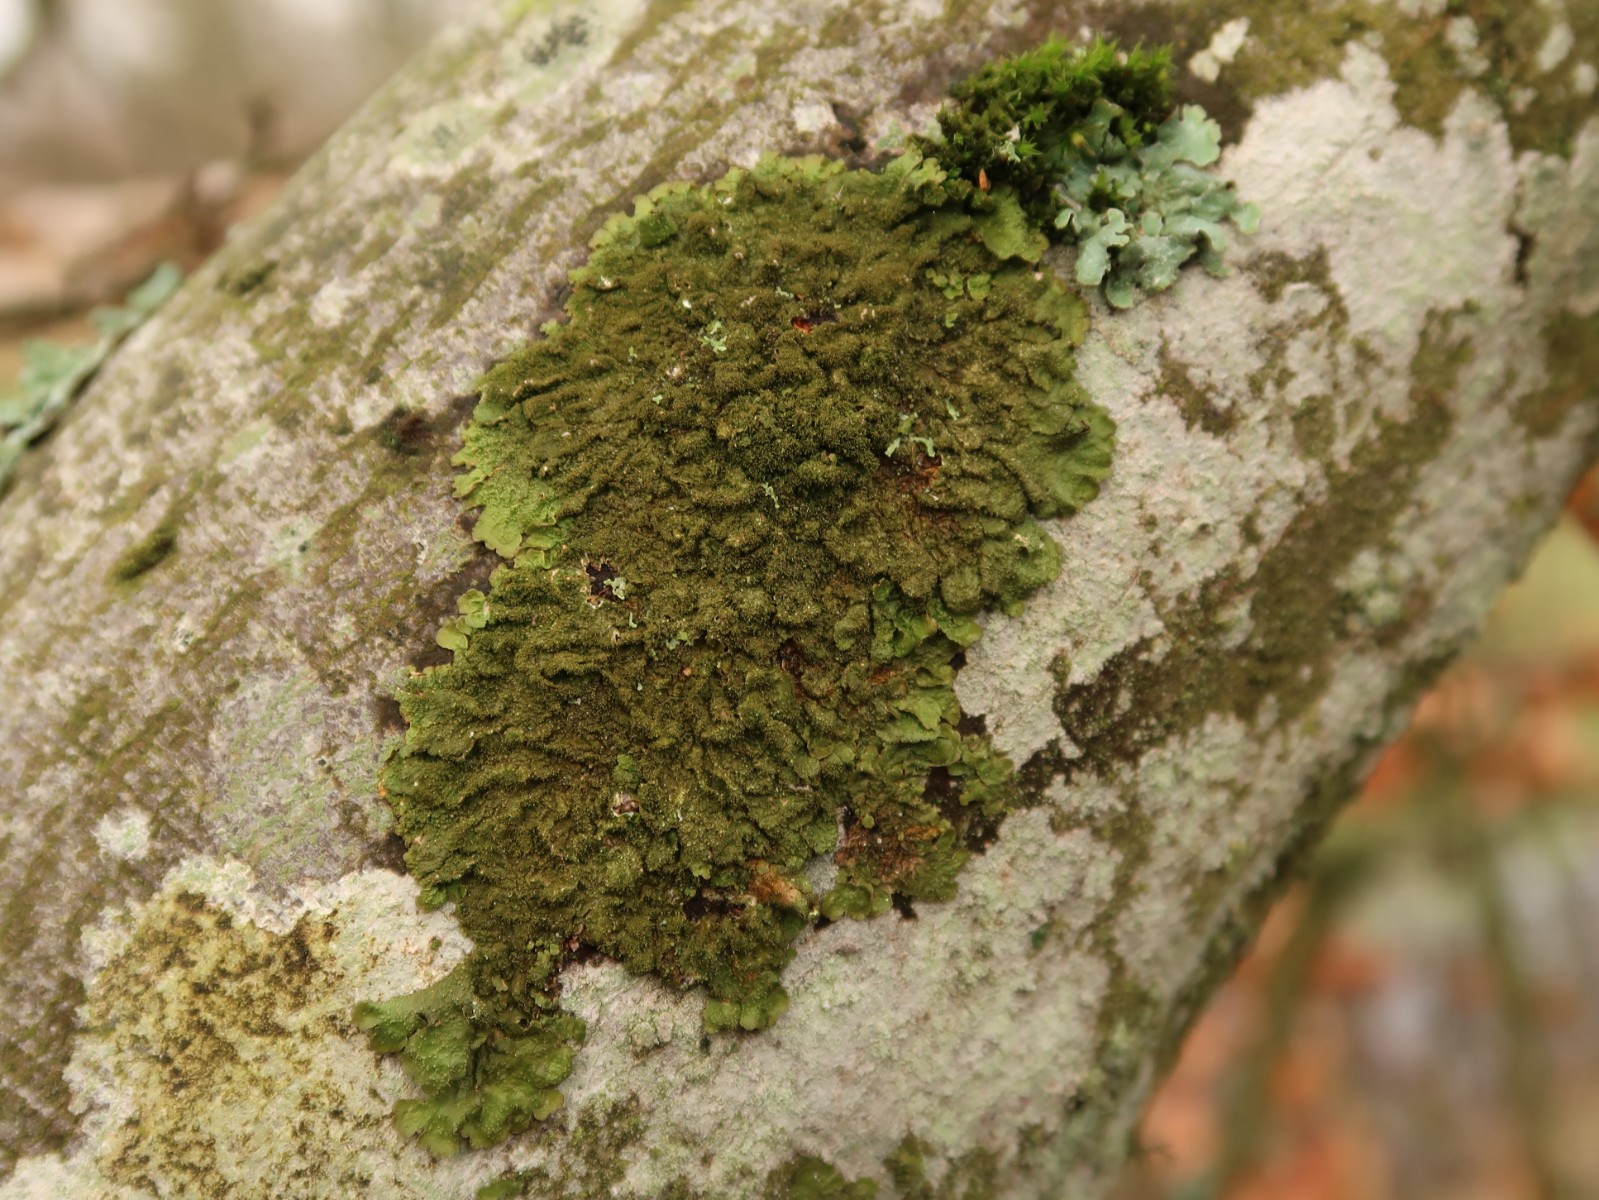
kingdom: Fungi
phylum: Ascomycota
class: Lecanoromycetes
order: Lecanorales
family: Parmeliaceae
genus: Melanelixia
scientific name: Melanelixia glabratula
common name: glinsende skållav
